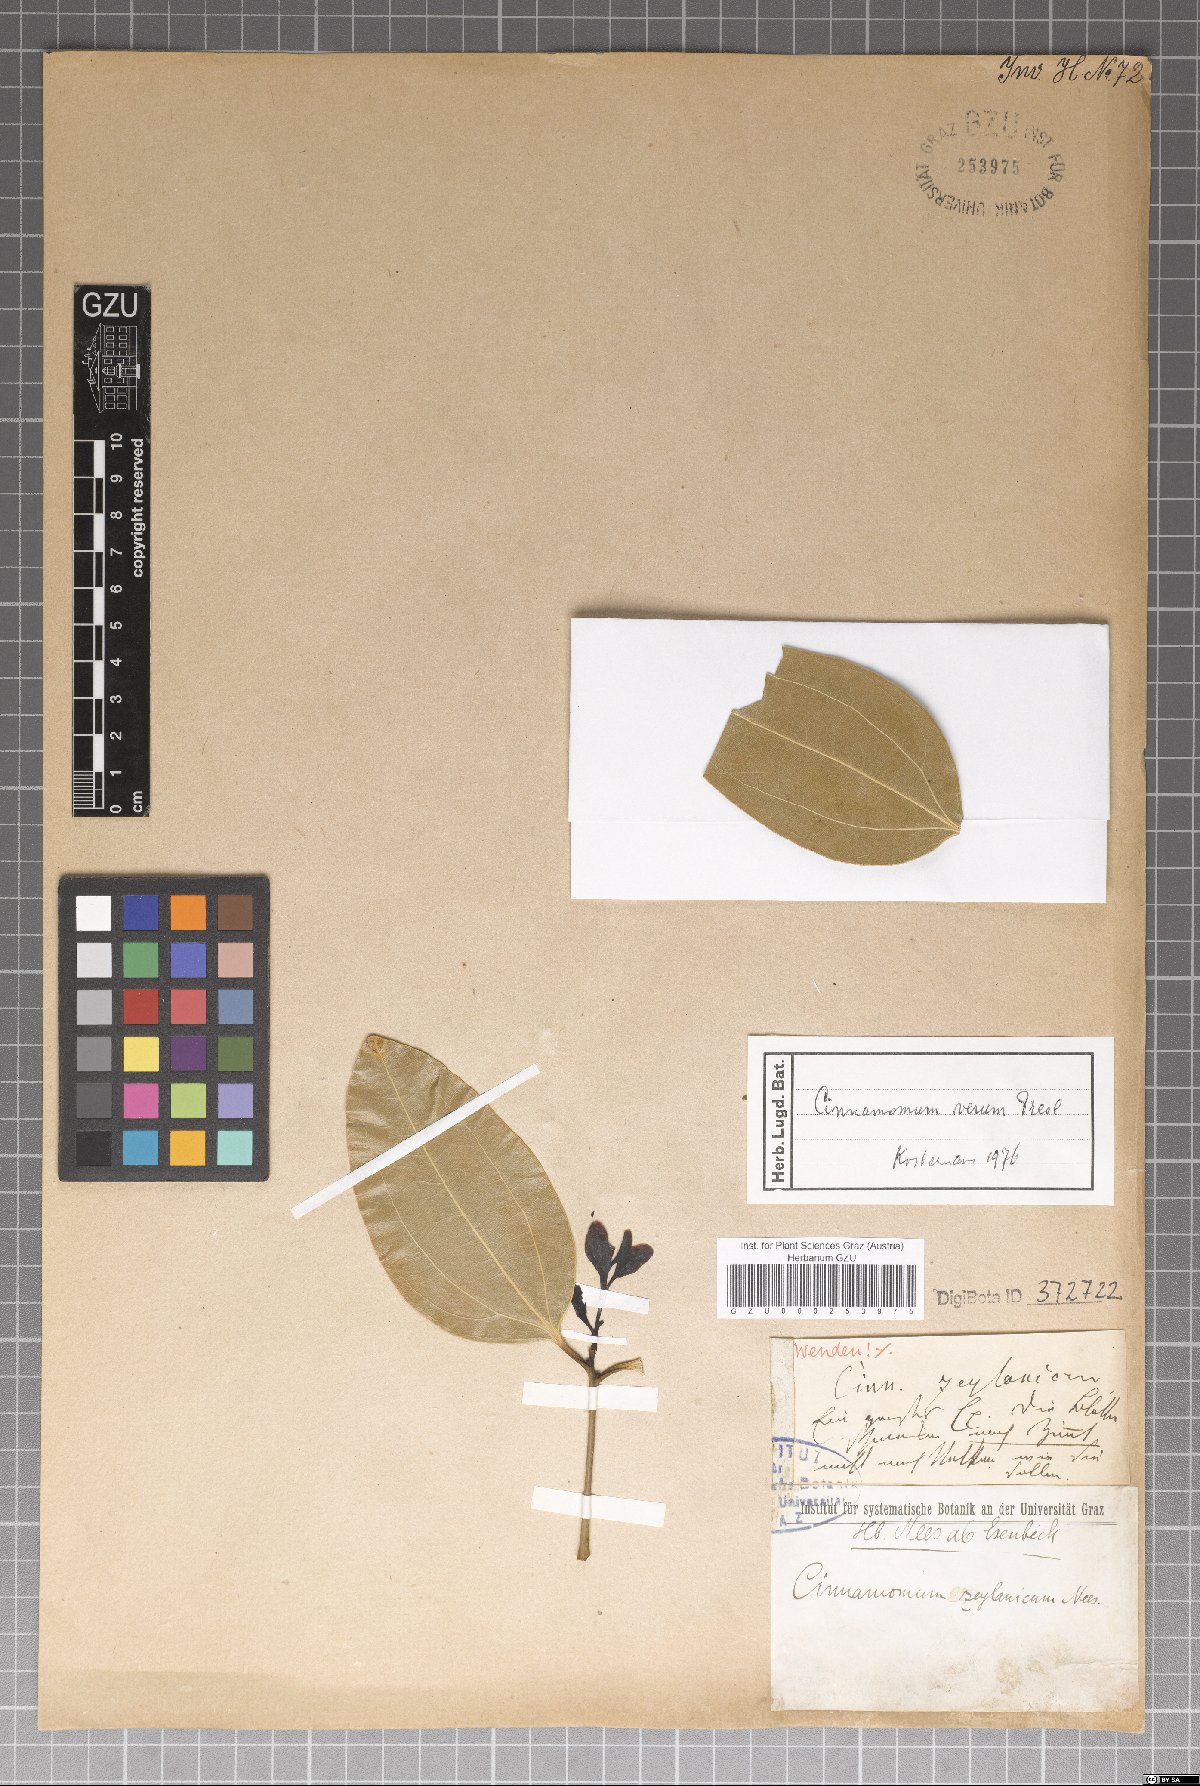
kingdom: Plantae
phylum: Tracheophyta
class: Magnoliopsida
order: Laurales
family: Lauraceae
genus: Cinnamomum
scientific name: Cinnamomum verum
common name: Cinnamon
